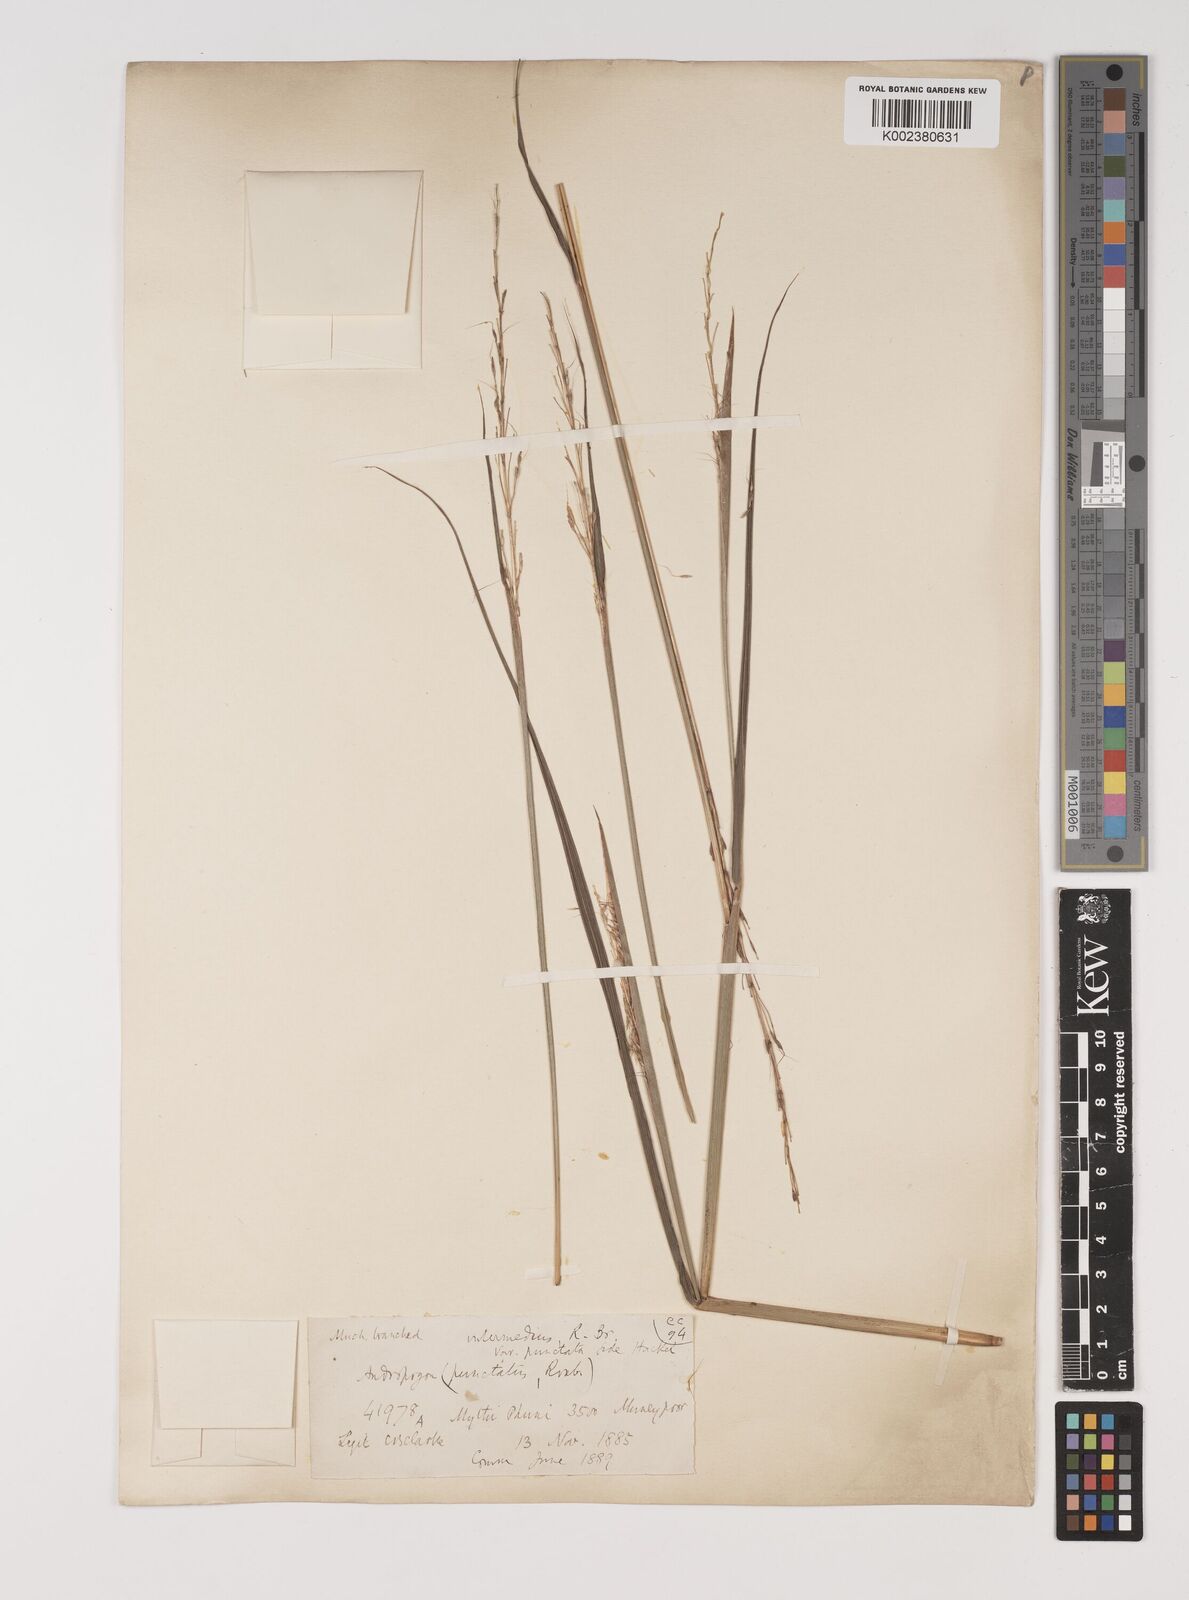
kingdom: Plantae
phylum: Tracheophyta
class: Liliopsida
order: Poales
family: Poaceae
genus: Bothriochloa
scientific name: Bothriochloa bladhii
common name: Caucasian bluestem
